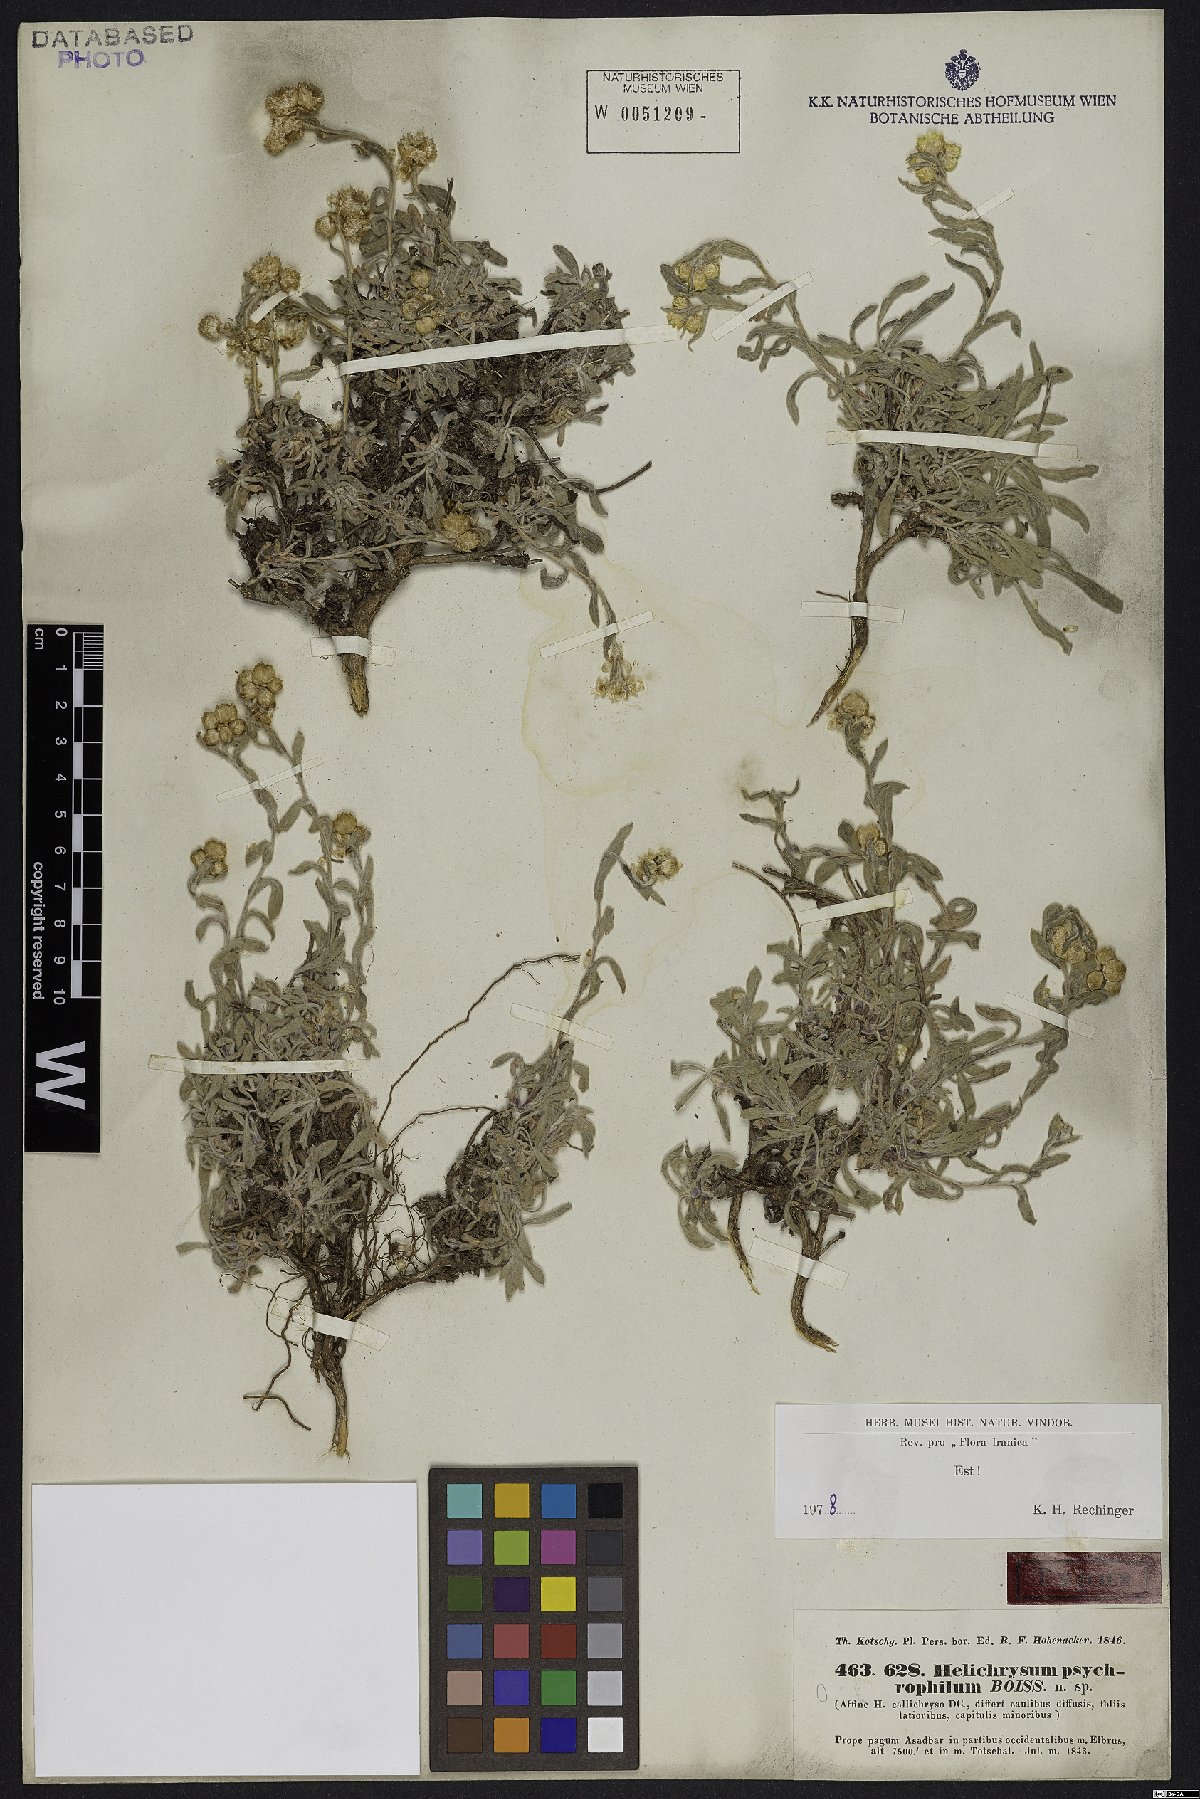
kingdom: Plantae
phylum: Tracheophyta
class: Magnoliopsida
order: Asterales
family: Asteraceae
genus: Helichrysum
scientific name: Helichrysum psychrophilum
